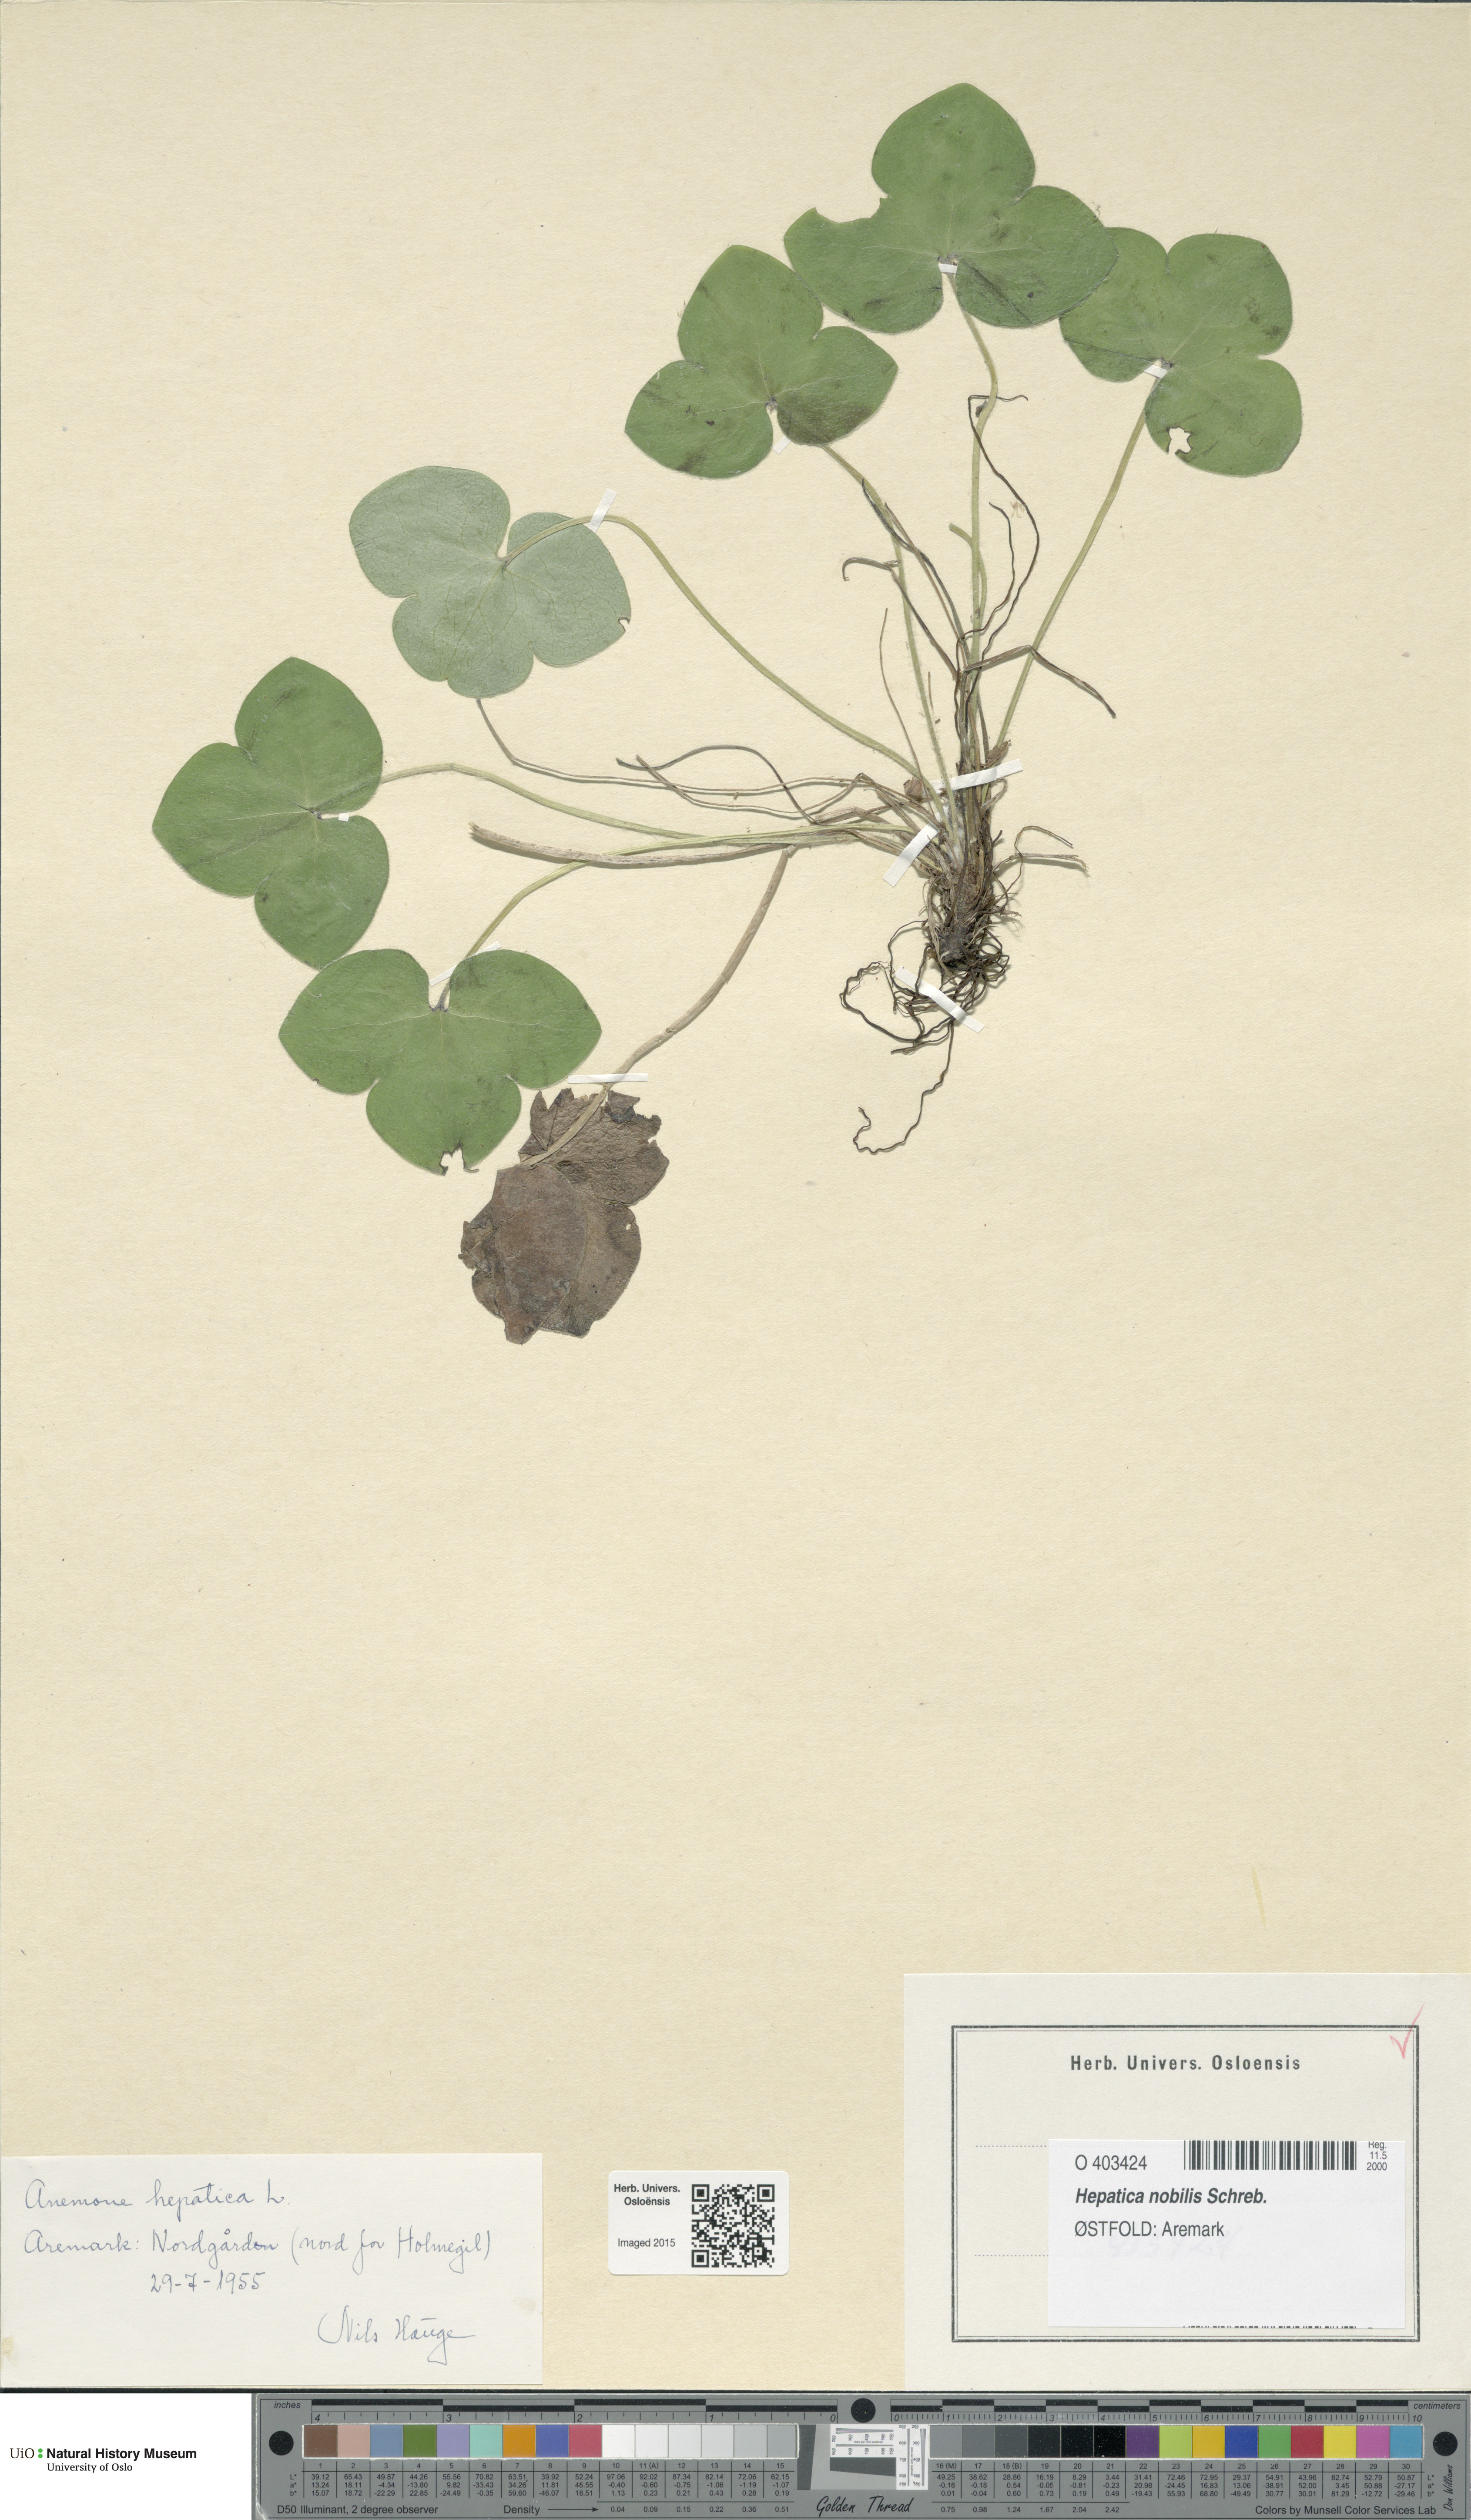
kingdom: Plantae
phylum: Tracheophyta
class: Magnoliopsida
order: Ranunculales
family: Ranunculaceae
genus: Hepatica
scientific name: Hepatica nobilis
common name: Liverleaf
